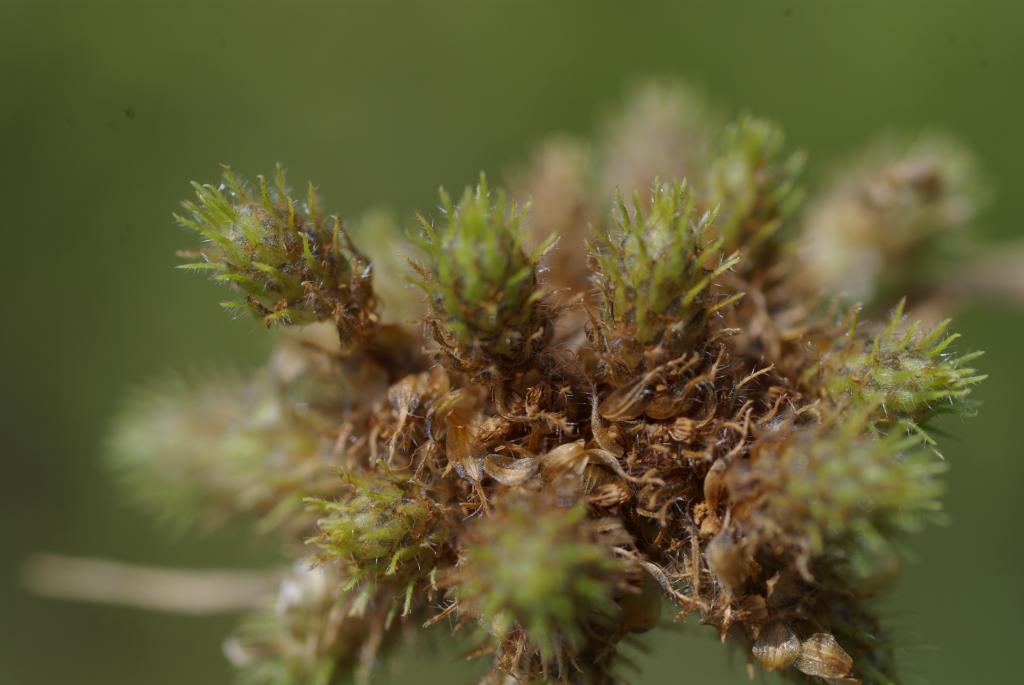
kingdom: Plantae
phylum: Tracheophyta
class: Liliopsida
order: Poales
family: Cyperaceae
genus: Fuirena
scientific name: Fuirena ciliaris
